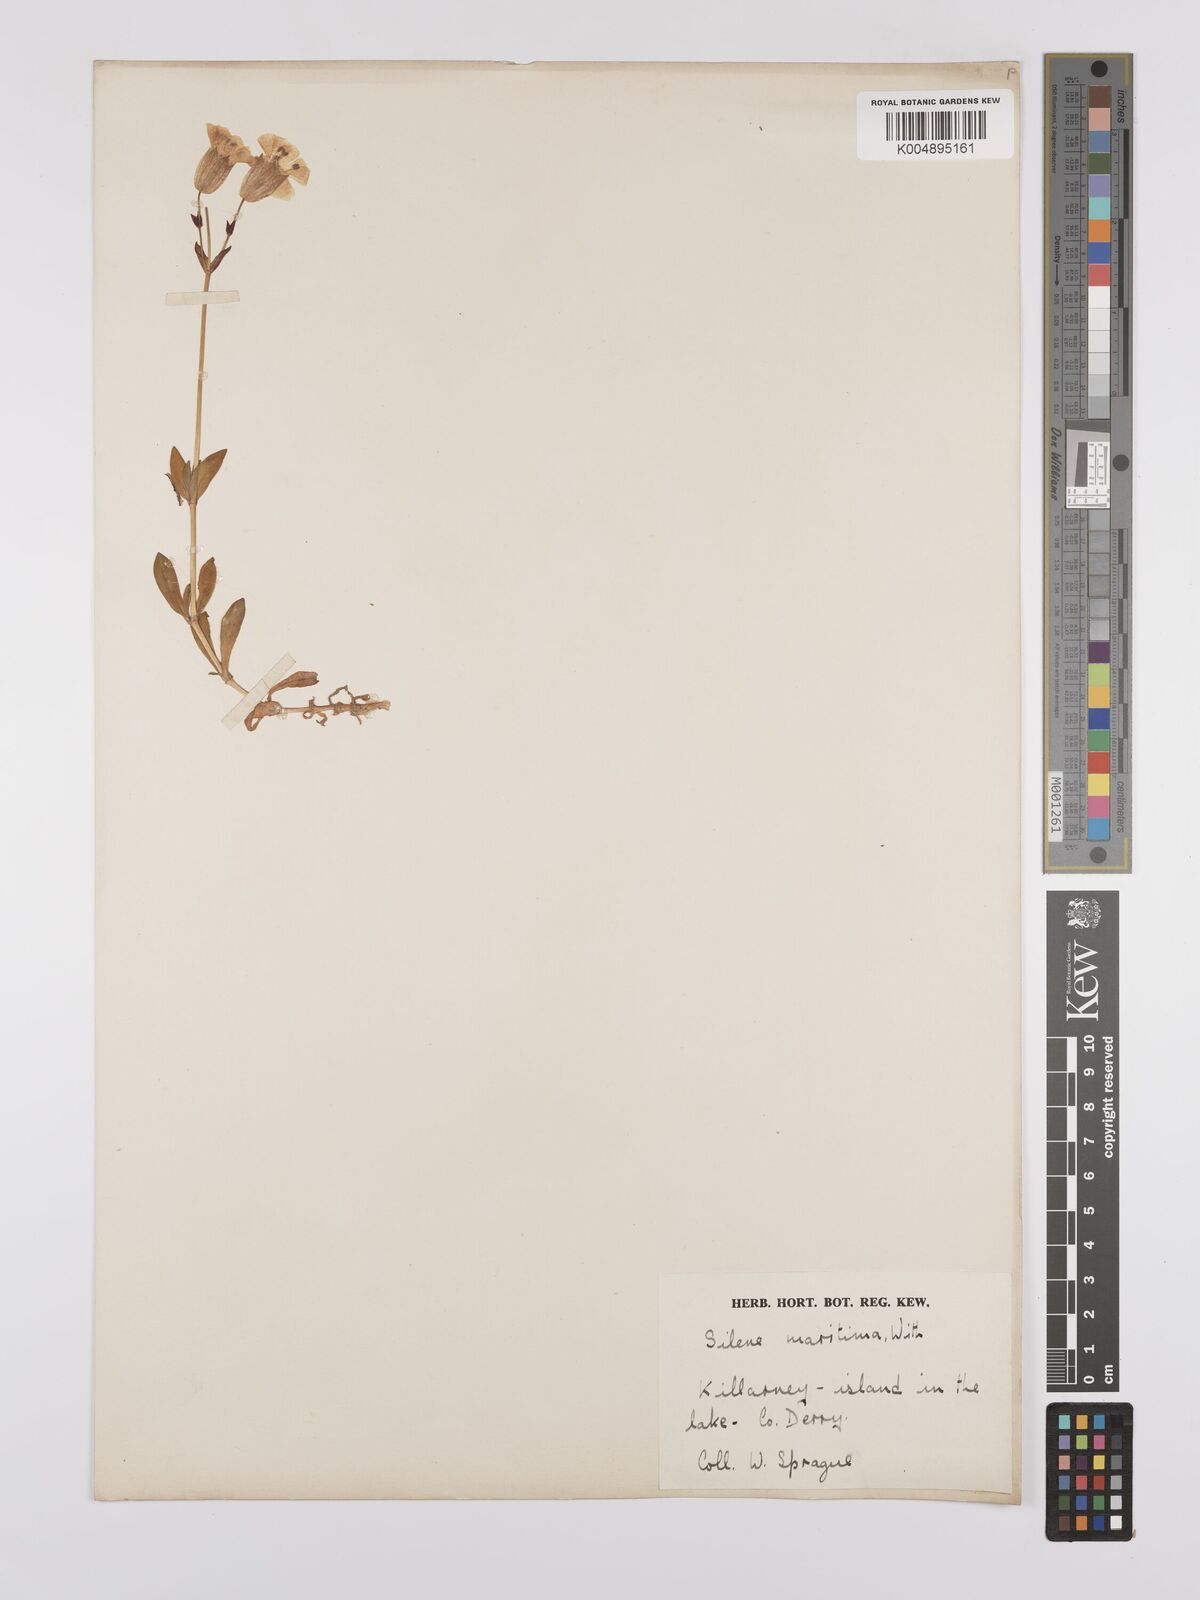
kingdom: Plantae
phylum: Tracheophyta
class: Magnoliopsida
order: Caryophyllales
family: Caryophyllaceae
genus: Silene
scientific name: Silene uniflora
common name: Sea campion
